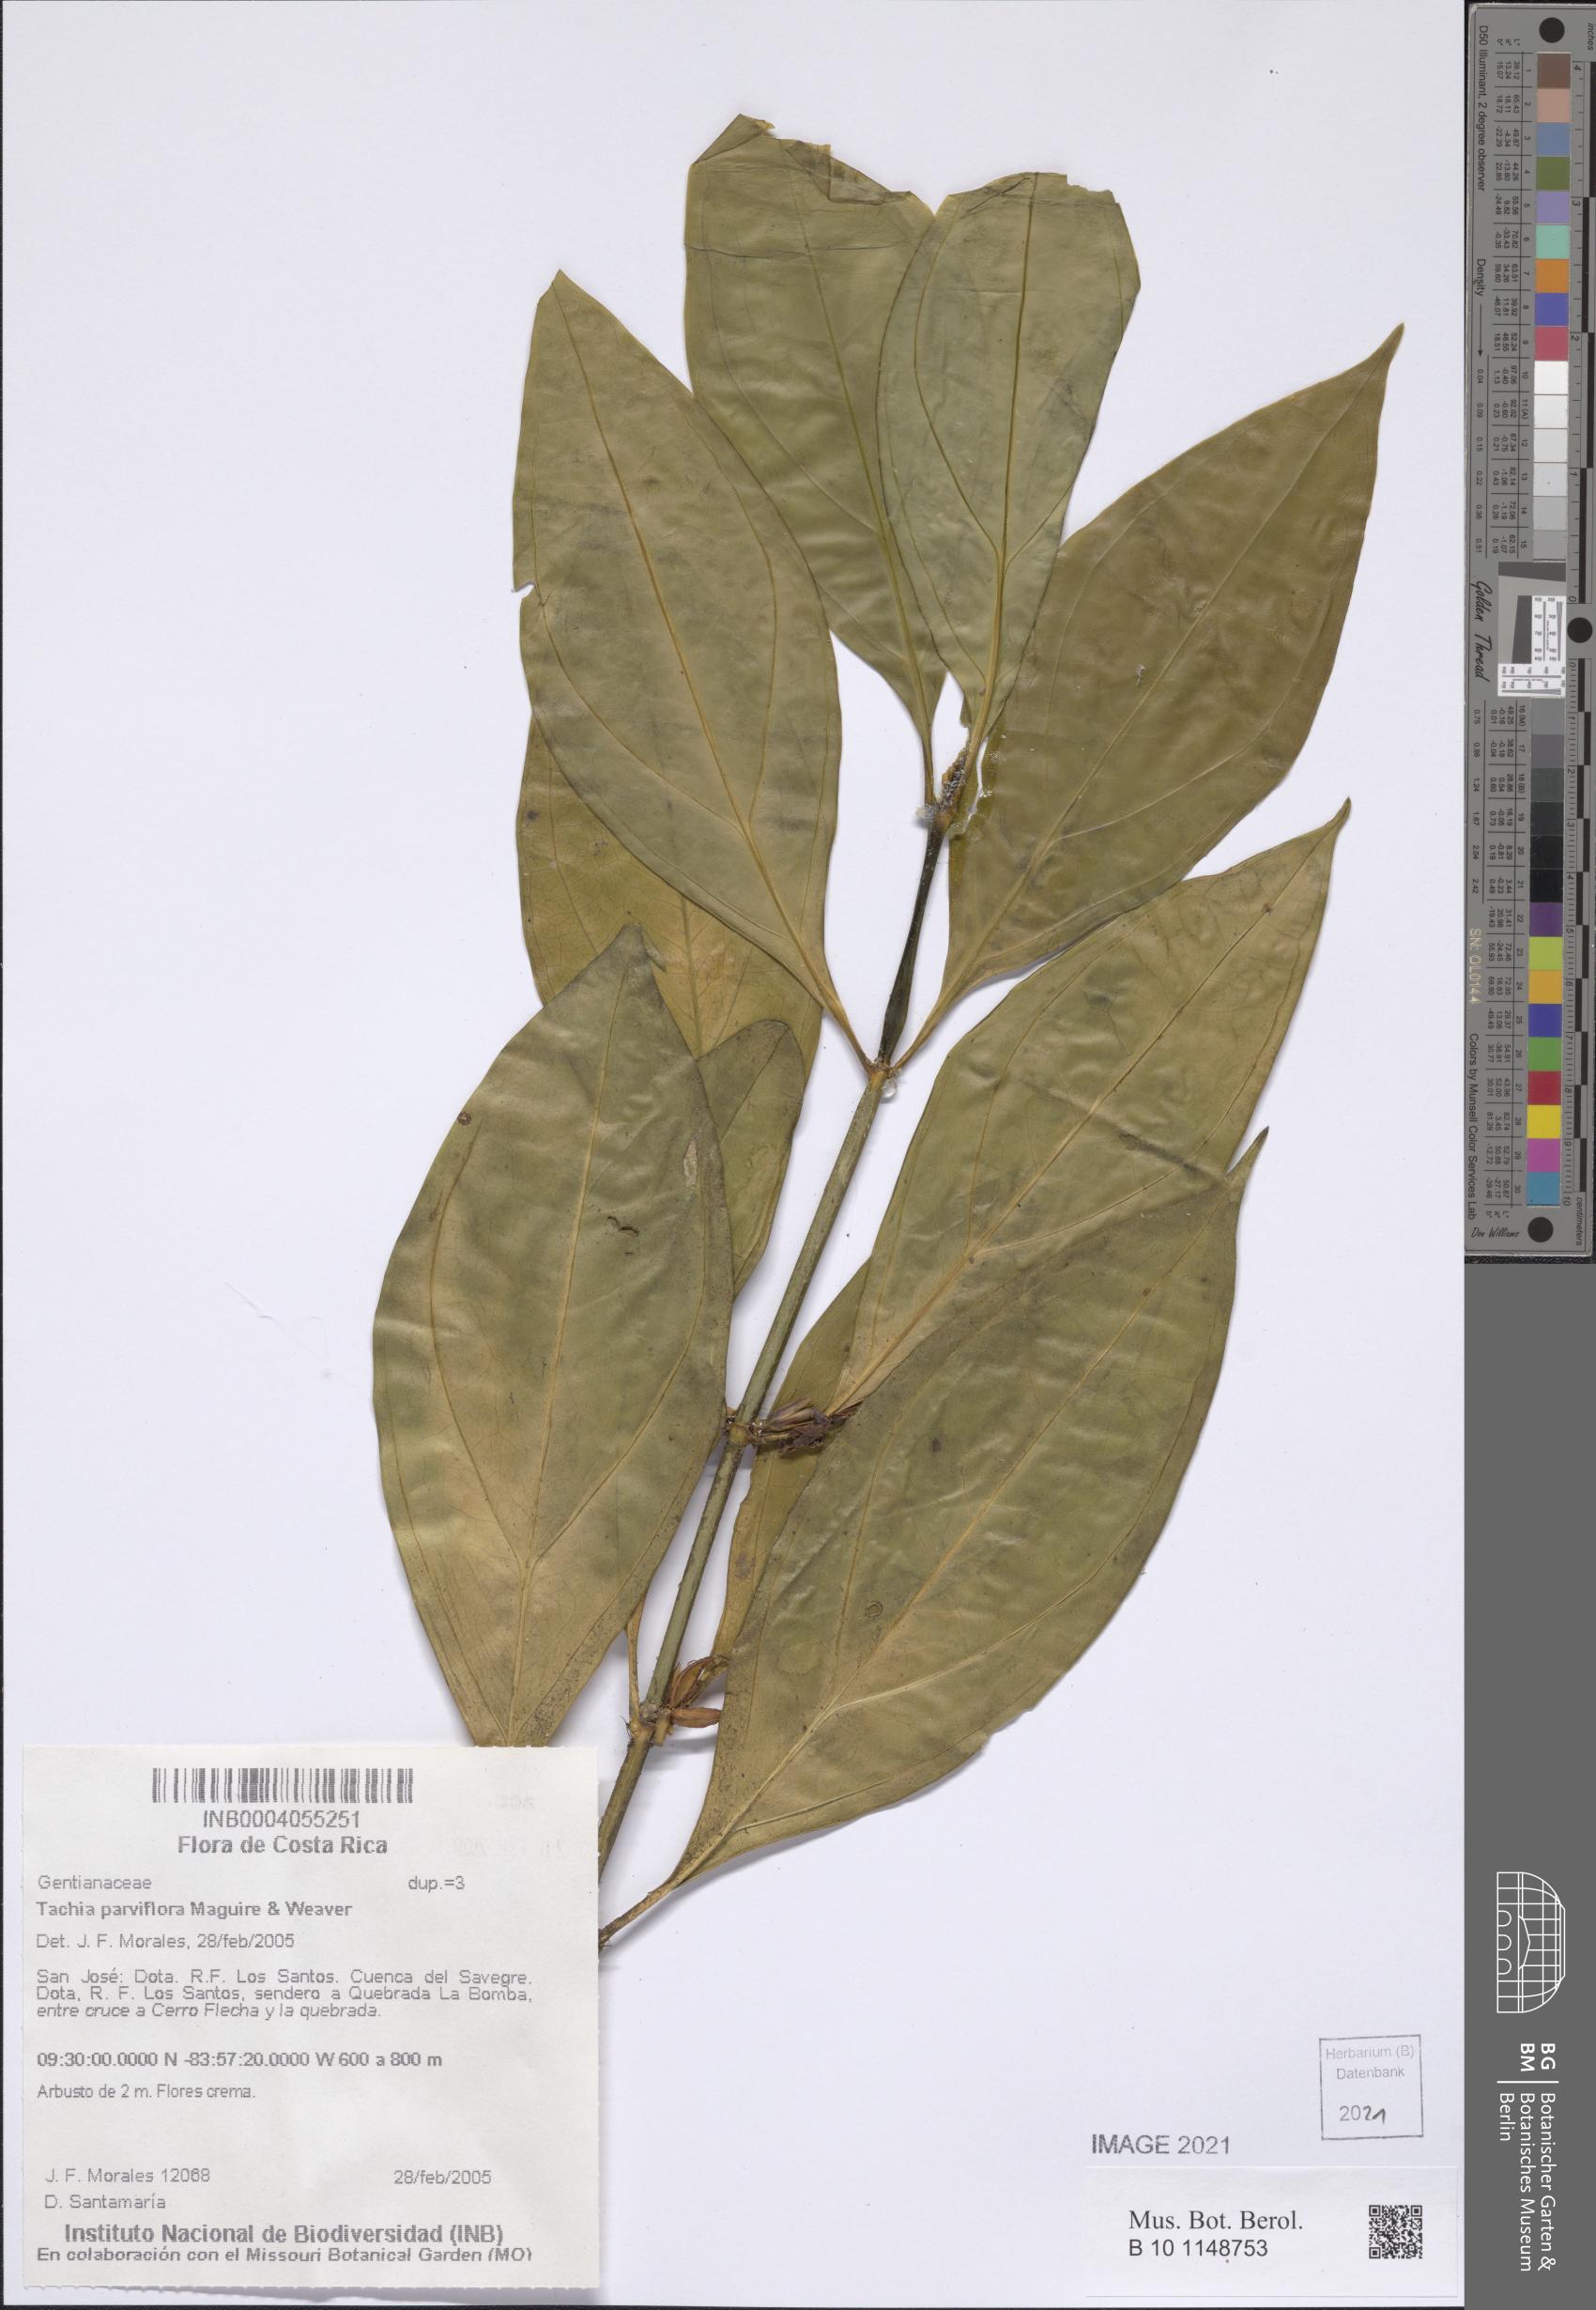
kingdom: Plantae
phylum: Tracheophyta
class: Magnoliopsida
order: Gentianales
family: Gentianaceae
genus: Tachia
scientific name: Tachia parviflora
